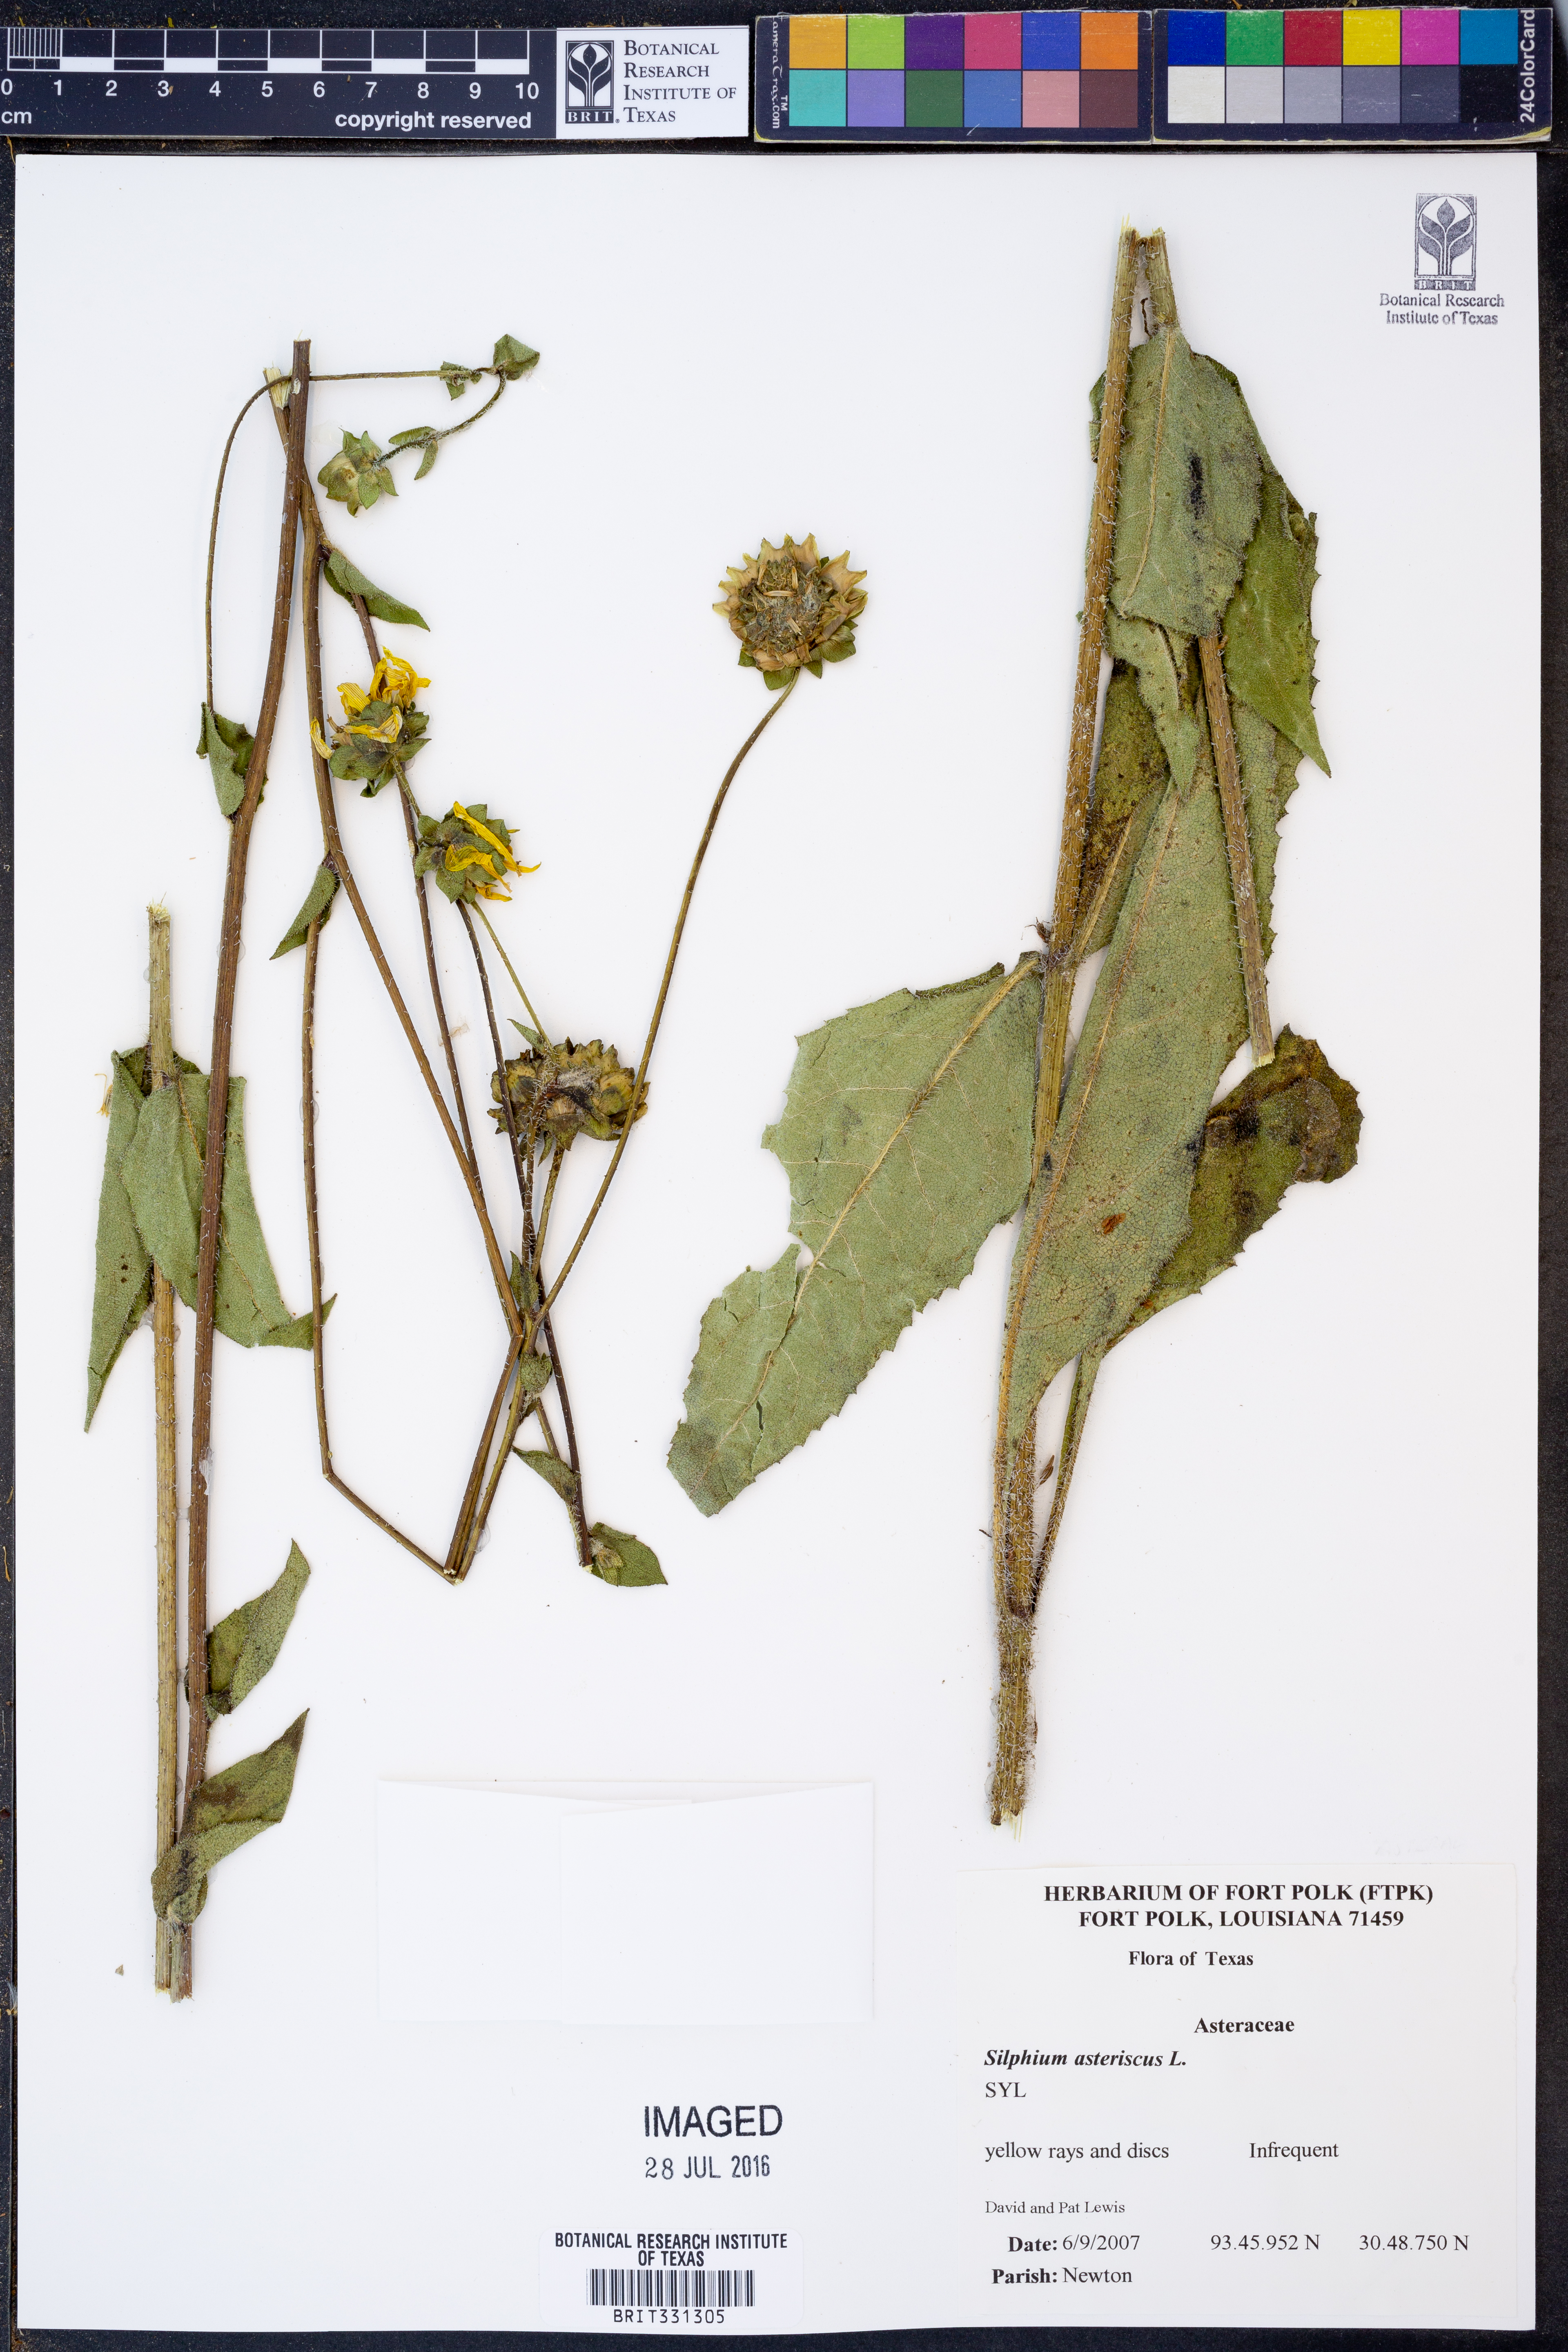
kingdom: Plantae
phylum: Tracheophyta
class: Magnoliopsida
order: Asterales
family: Asteraceae
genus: Silphium
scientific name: Silphium asteriscus
